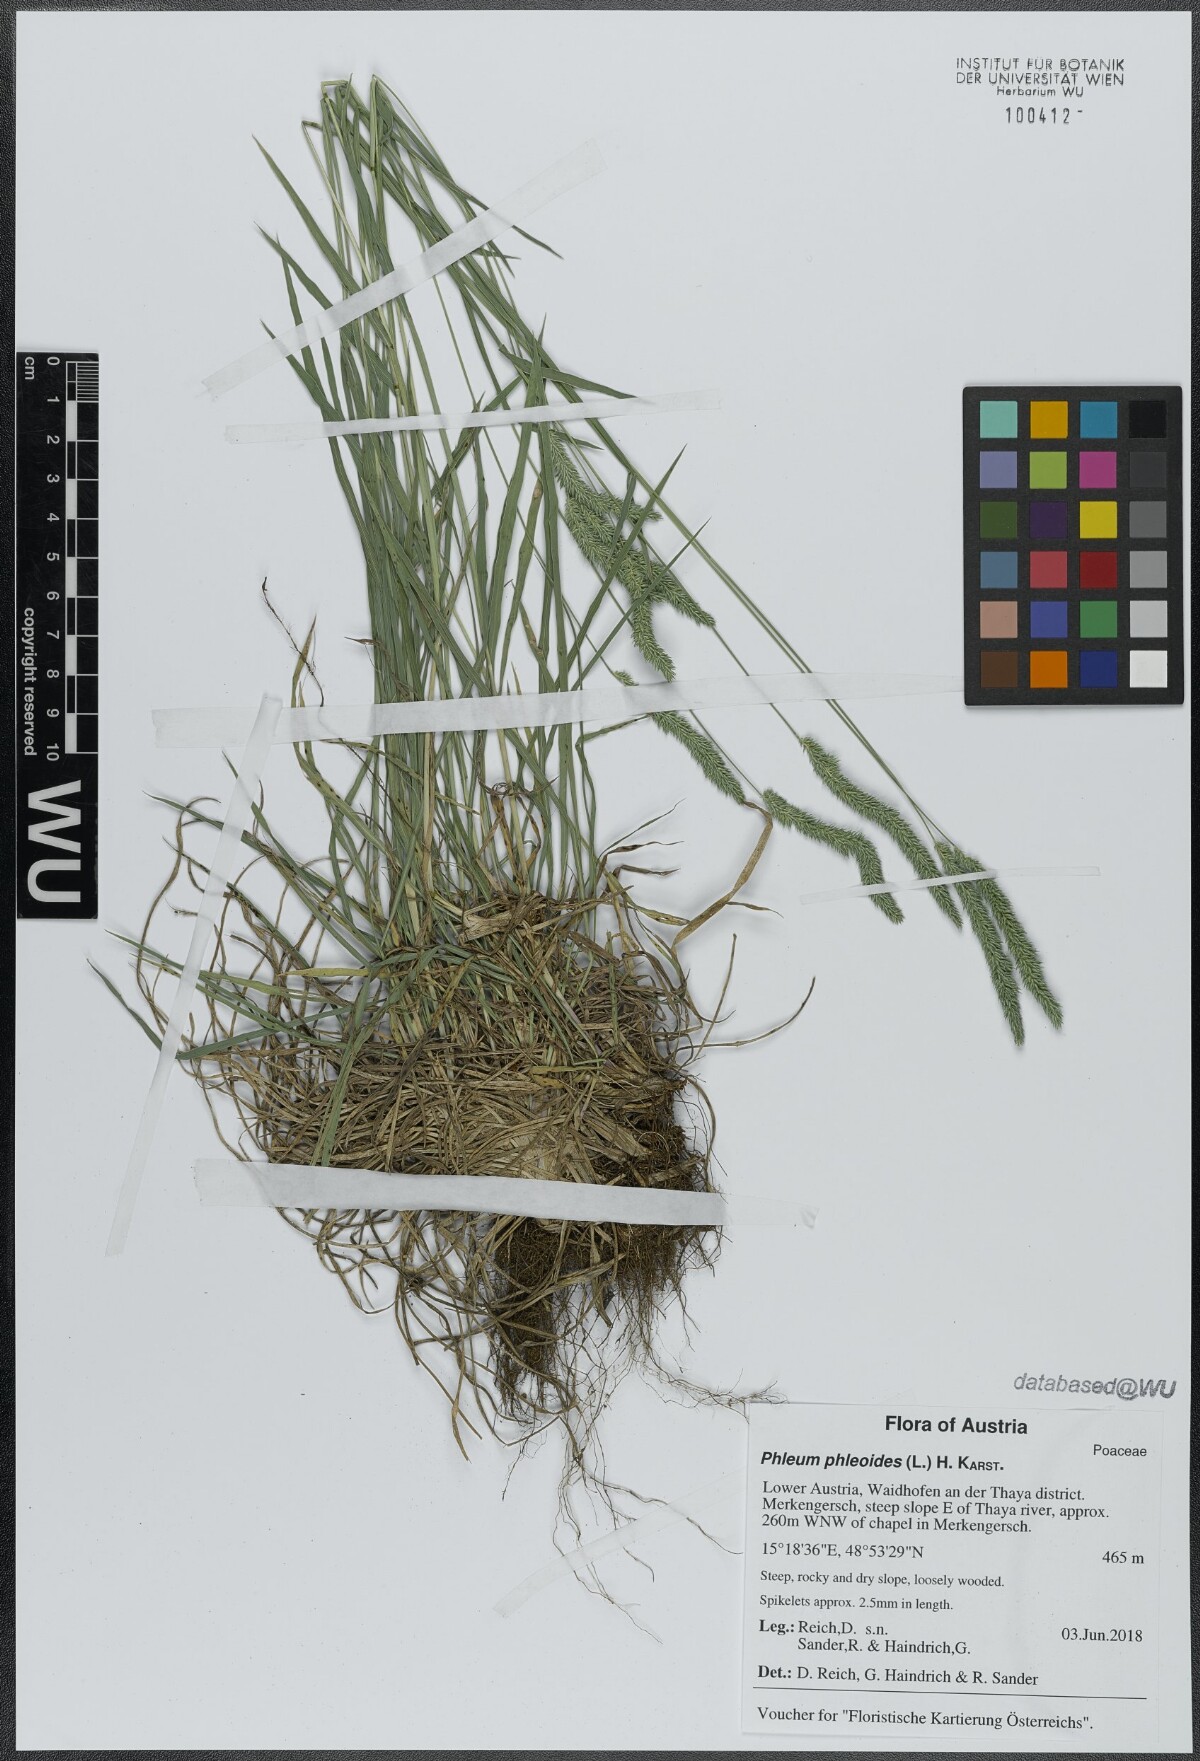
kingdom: Plantae
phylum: Tracheophyta
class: Liliopsida
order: Poales
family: Poaceae
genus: Phleum
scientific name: Phleum phleoides
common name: Purple-stem cat's-tail
